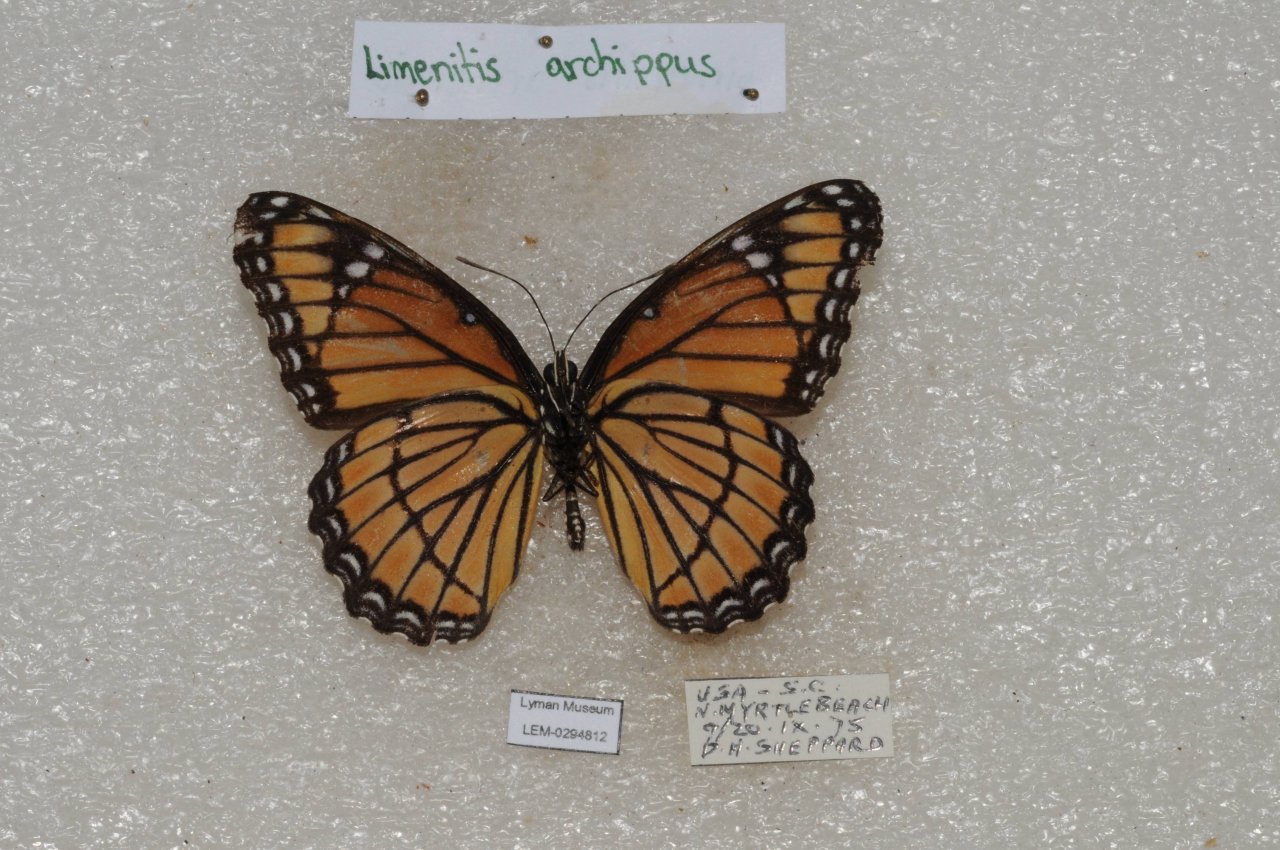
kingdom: Animalia
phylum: Arthropoda
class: Insecta
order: Lepidoptera
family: Nymphalidae
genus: Limenitis
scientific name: Limenitis archippus
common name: Viceroy
